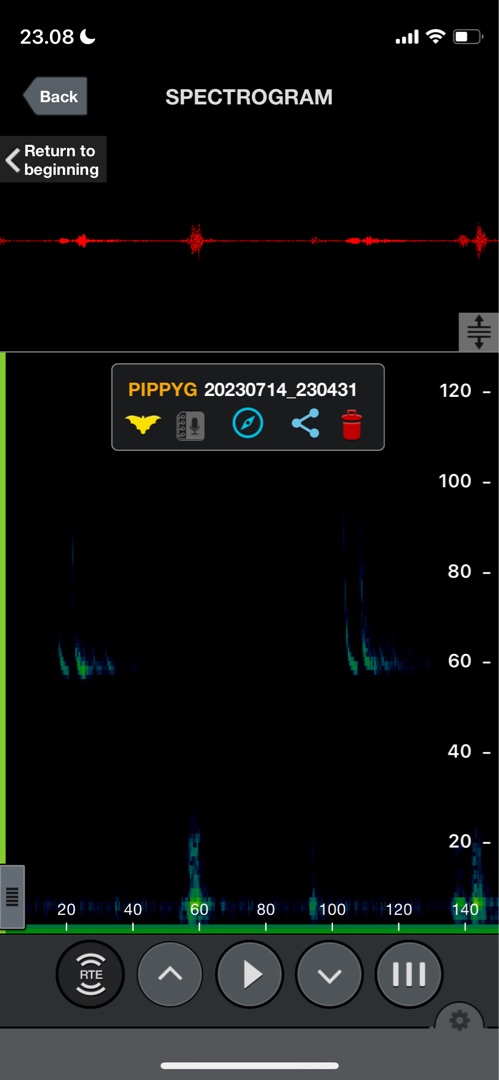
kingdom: Animalia
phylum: Chordata
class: Mammalia
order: Chiroptera
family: Vespertilionidae
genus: Pipistrellus
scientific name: Pipistrellus pygmaeus
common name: Dværgflagermus
